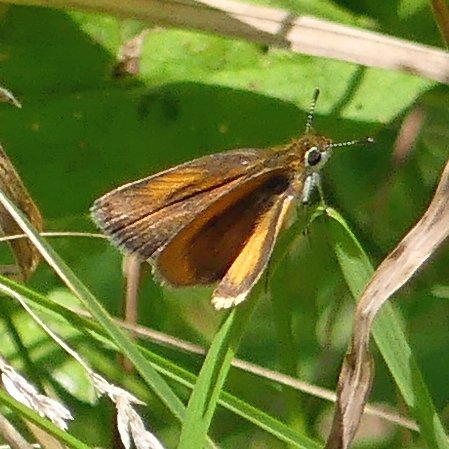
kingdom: Animalia
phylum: Arthropoda
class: Insecta
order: Lepidoptera
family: Hesperiidae
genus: Ancyloxypha
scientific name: Ancyloxypha numitor
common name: Least Skipper
